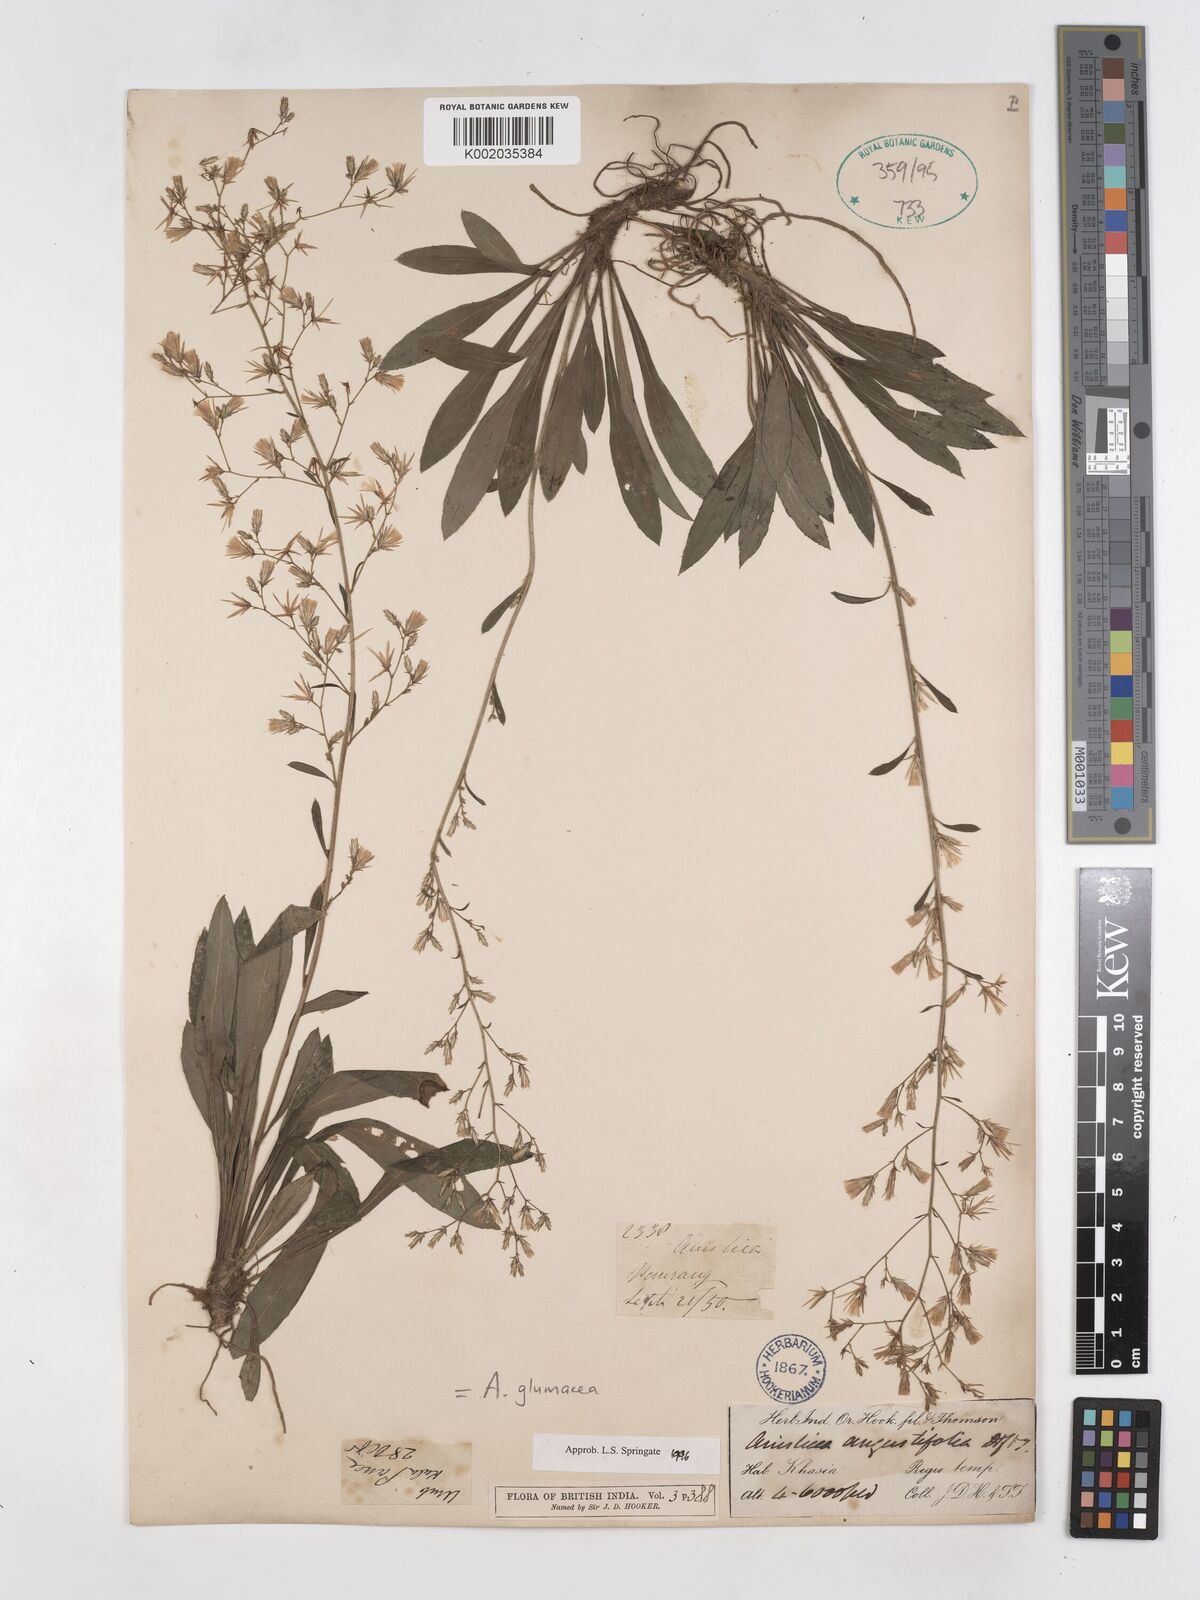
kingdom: Plantae
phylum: Tracheophyta
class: Magnoliopsida
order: Asterales
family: Asteraceae
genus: Ainsliaea
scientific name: Ainsliaea angustifolia
